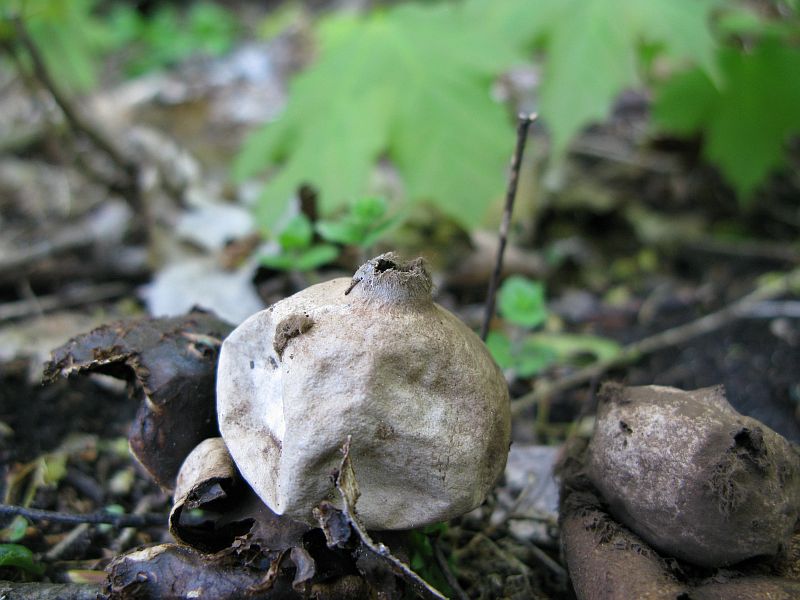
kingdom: Fungi
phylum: Basidiomycota
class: Agaricomycetes
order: Geastrales
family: Geastraceae
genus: Geastrum
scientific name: Geastrum michelianum
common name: kødet stjernebold
